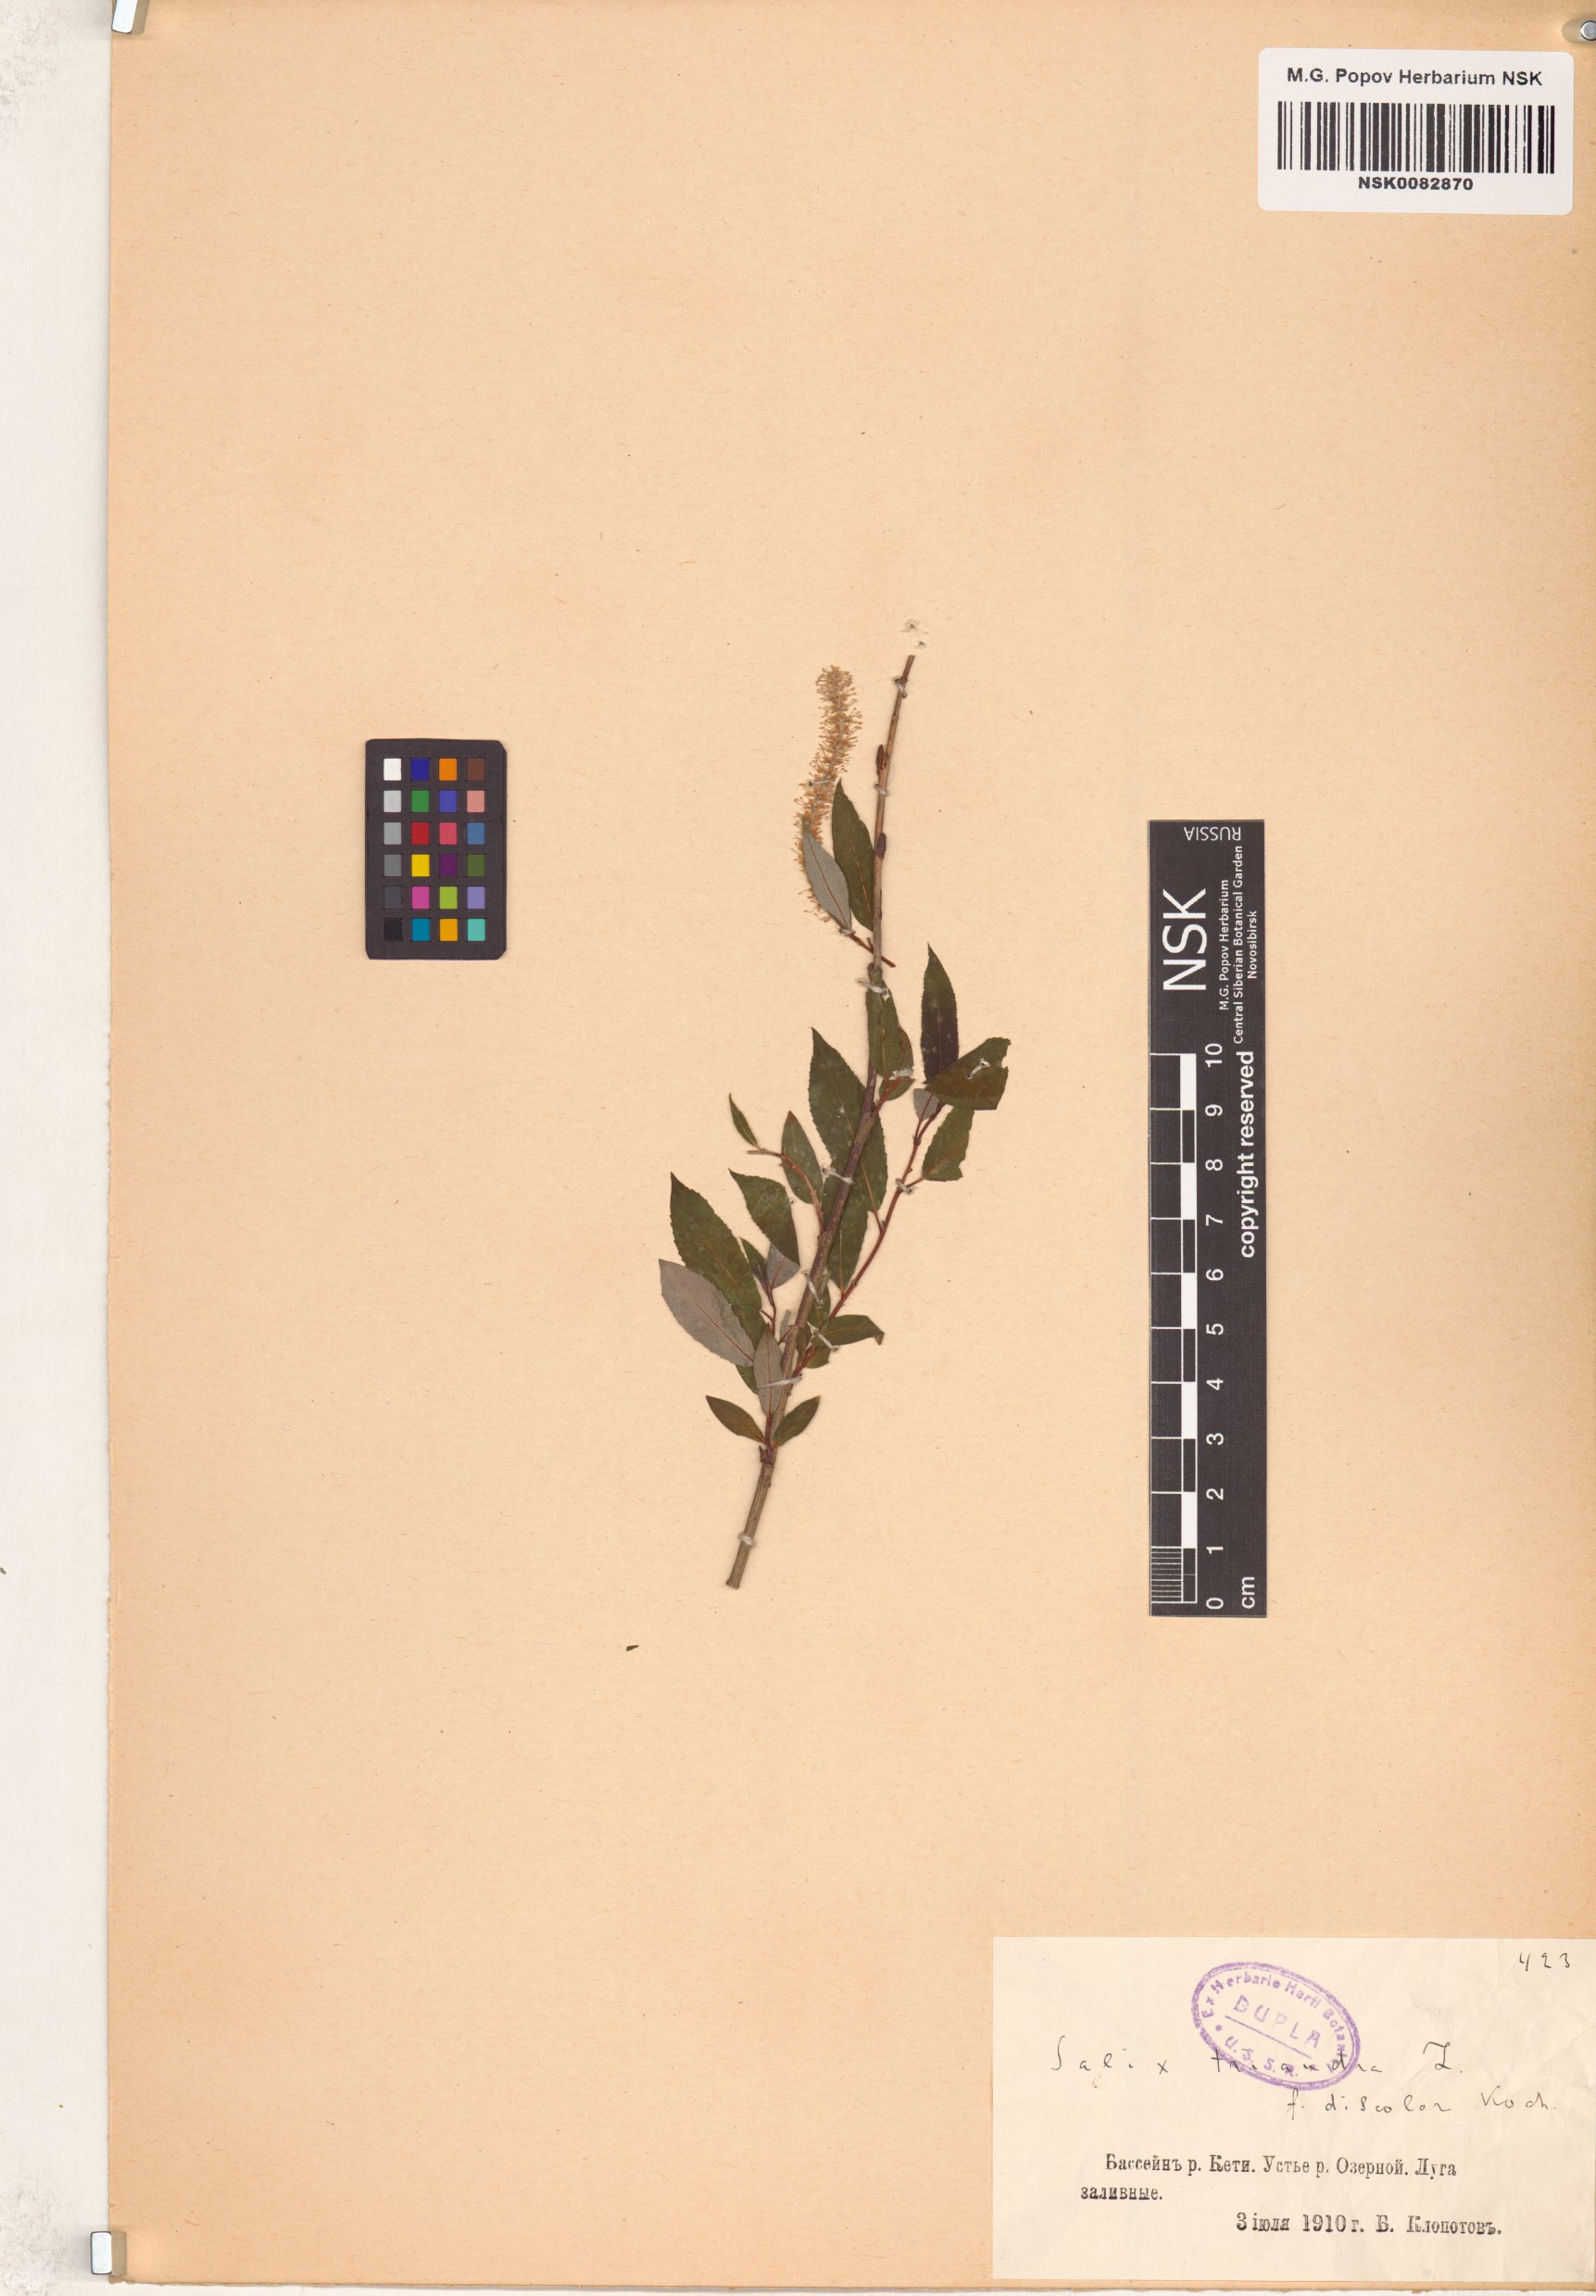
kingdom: Plantae
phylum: Tracheophyta
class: Magnoliopsida
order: Malpighiales
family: Salicaceae
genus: Salix
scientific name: Salix triandra
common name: Almond willow
